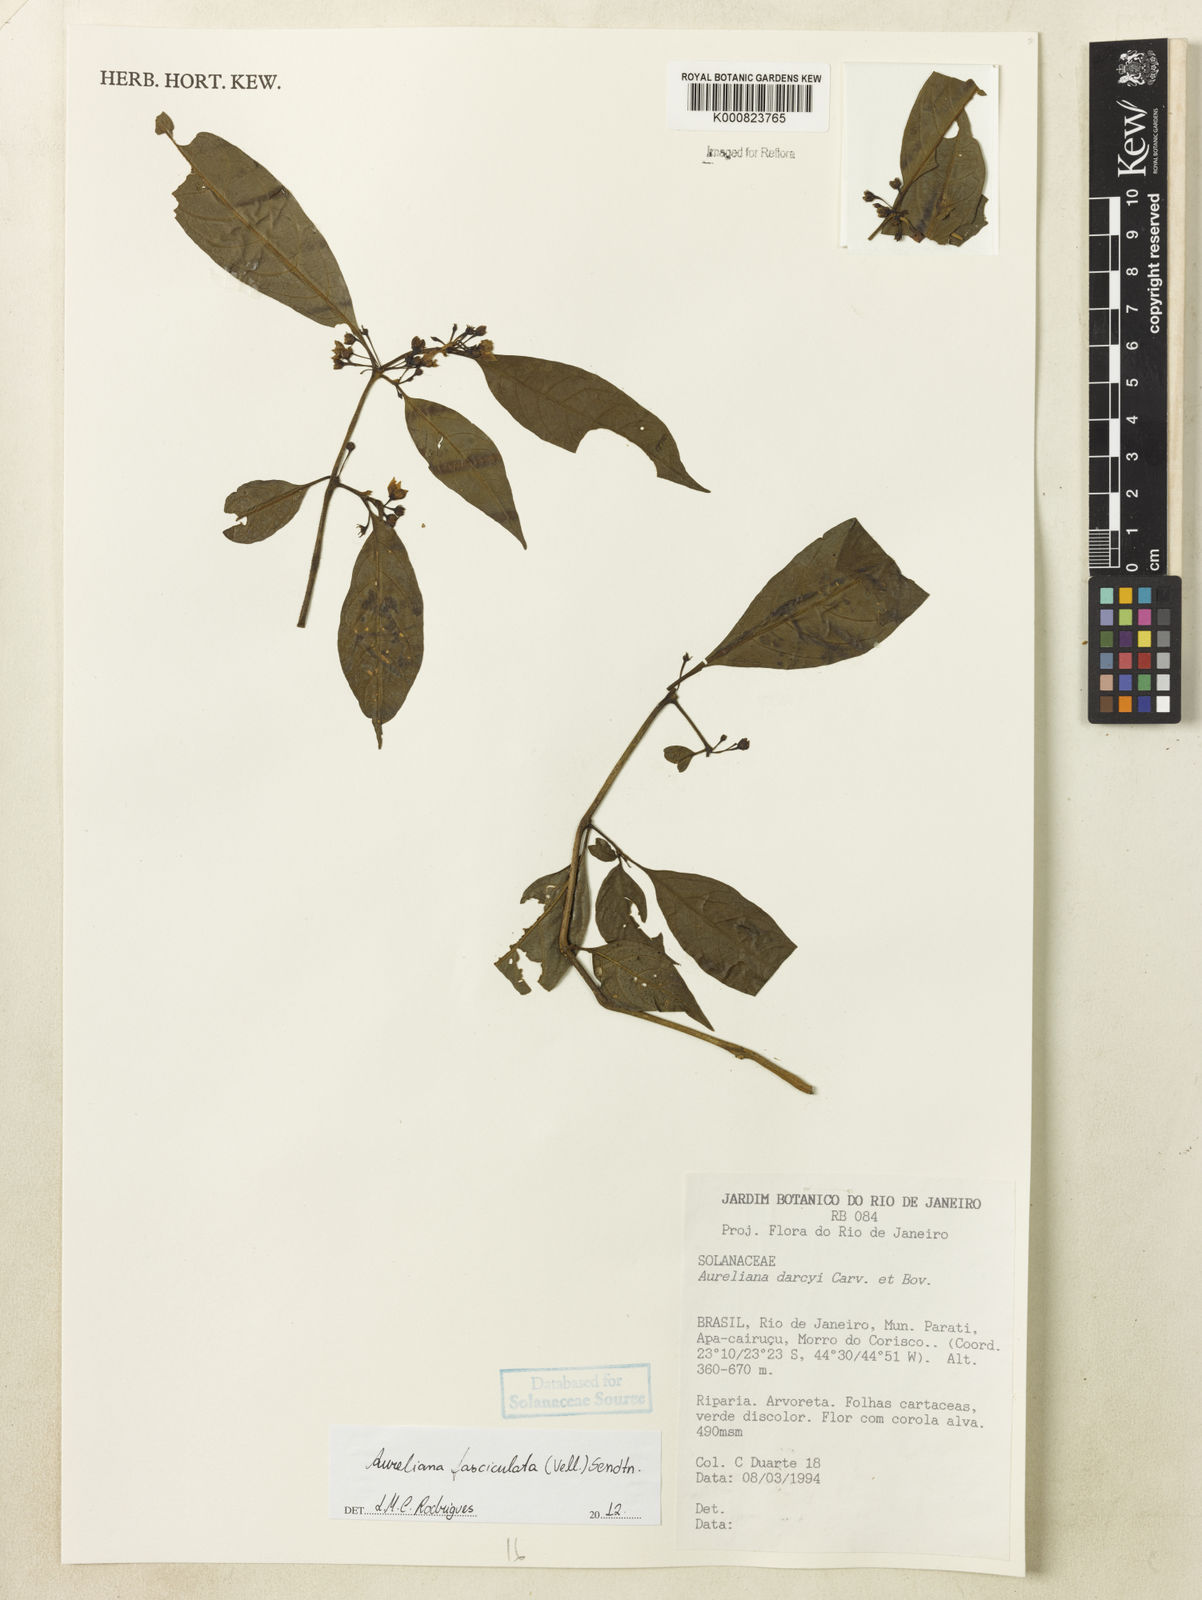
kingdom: Plantae
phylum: Tracheophyta
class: Magnoliopsida
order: Solanales
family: Solanaceae
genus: Athenaea
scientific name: Athenaea fasciculata
